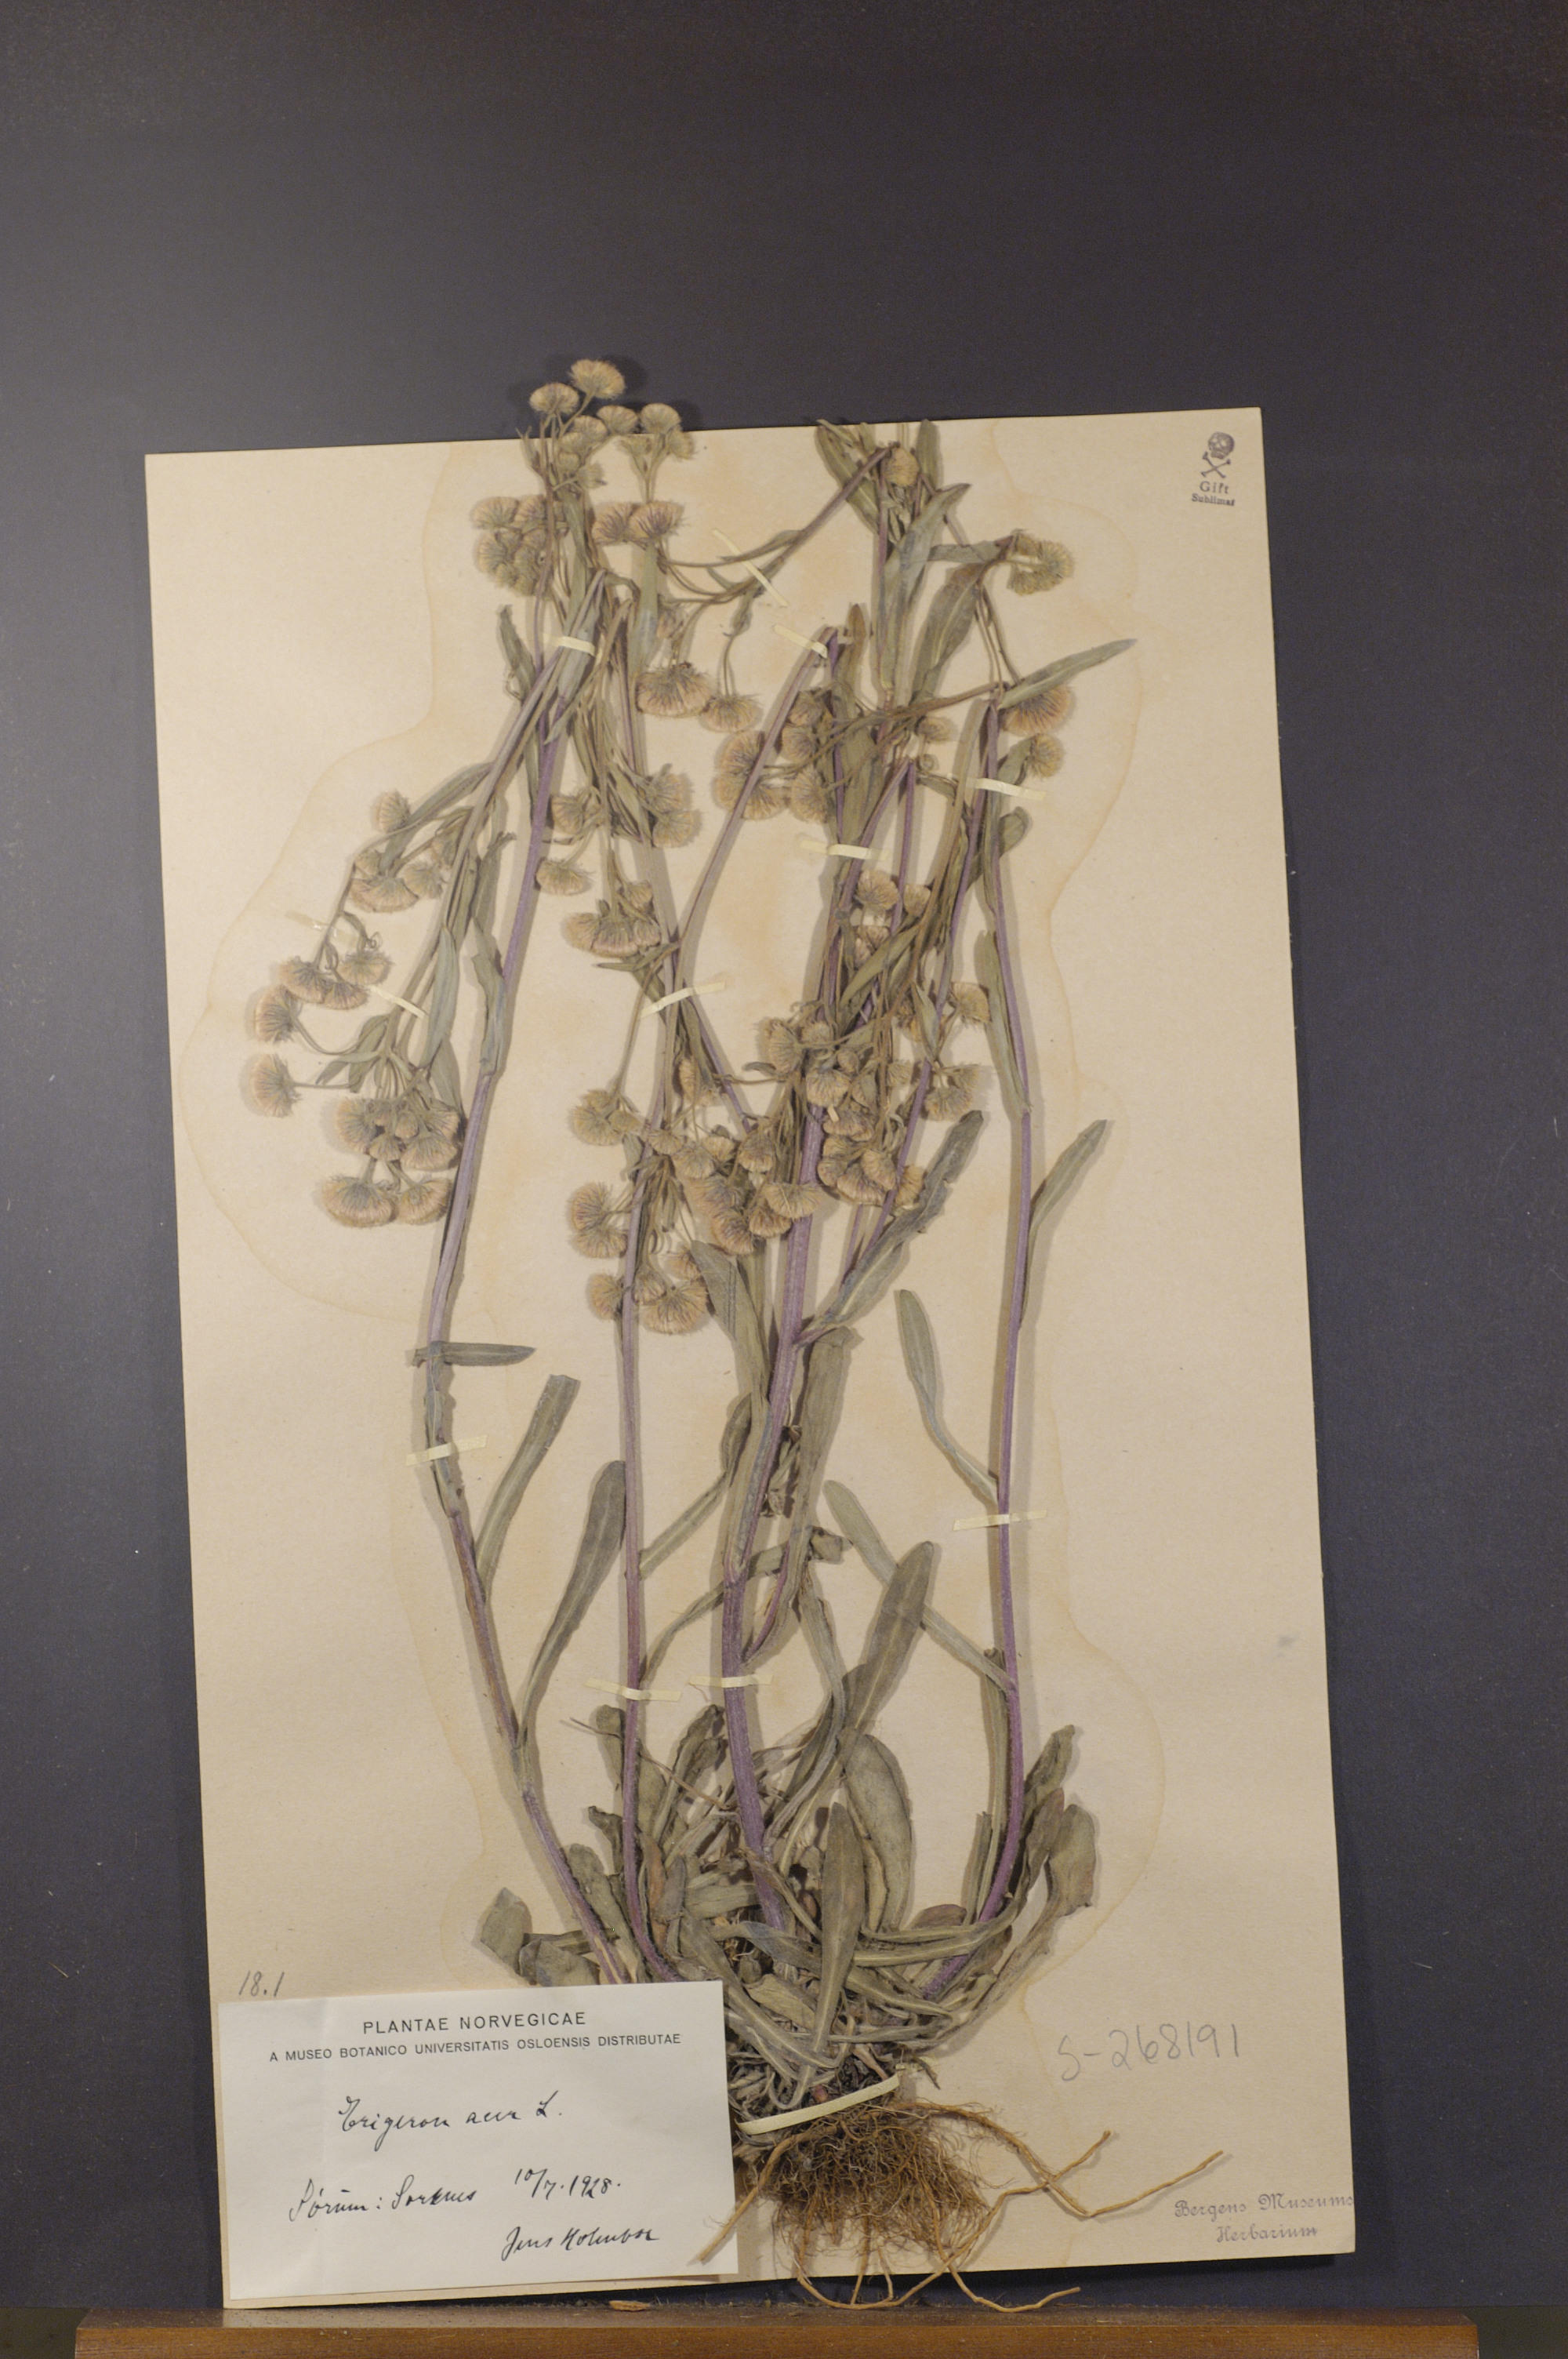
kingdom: Plantae
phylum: Tracheophyta
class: Magnoliopsida
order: Asterales
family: Asteraceae
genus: Erigeron
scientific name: Erigeron acris
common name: Blue fleabane
